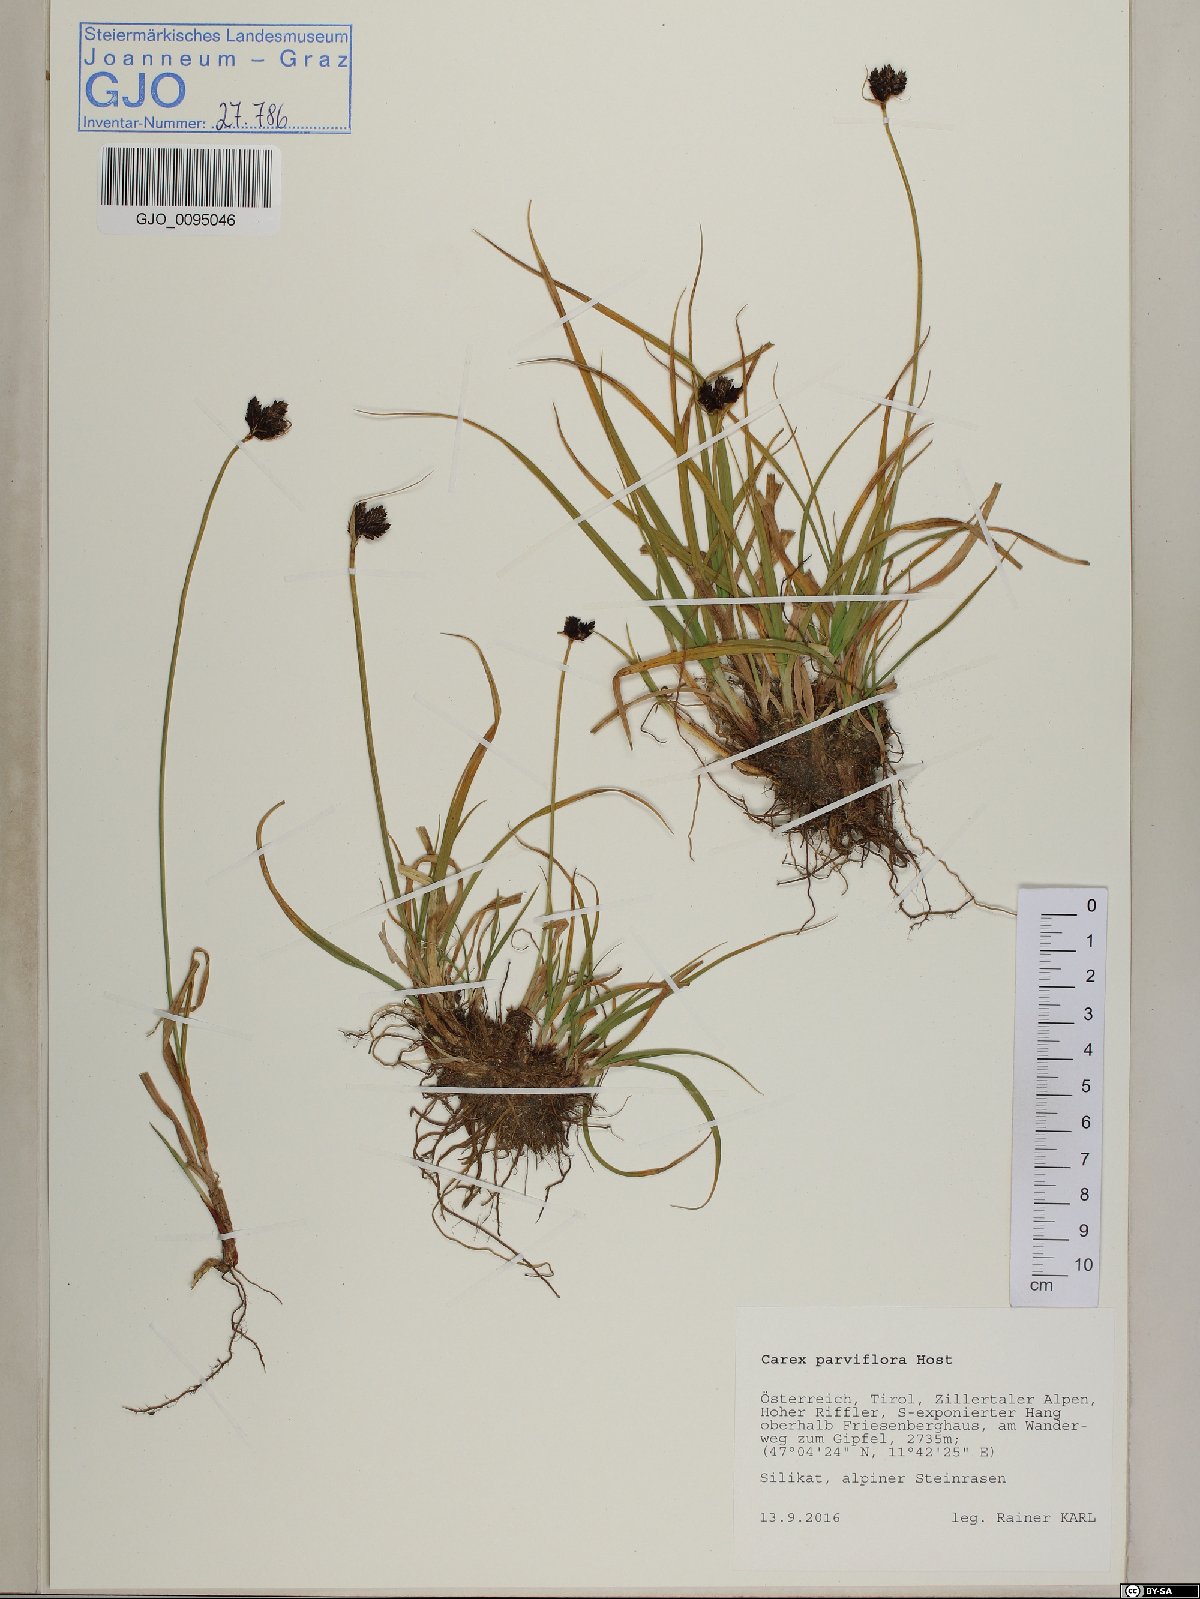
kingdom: Plantae
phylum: Tracheophyta
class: Liliopsida
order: Poales
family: Cyperaceae
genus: Carex
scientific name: Carex parviflora
